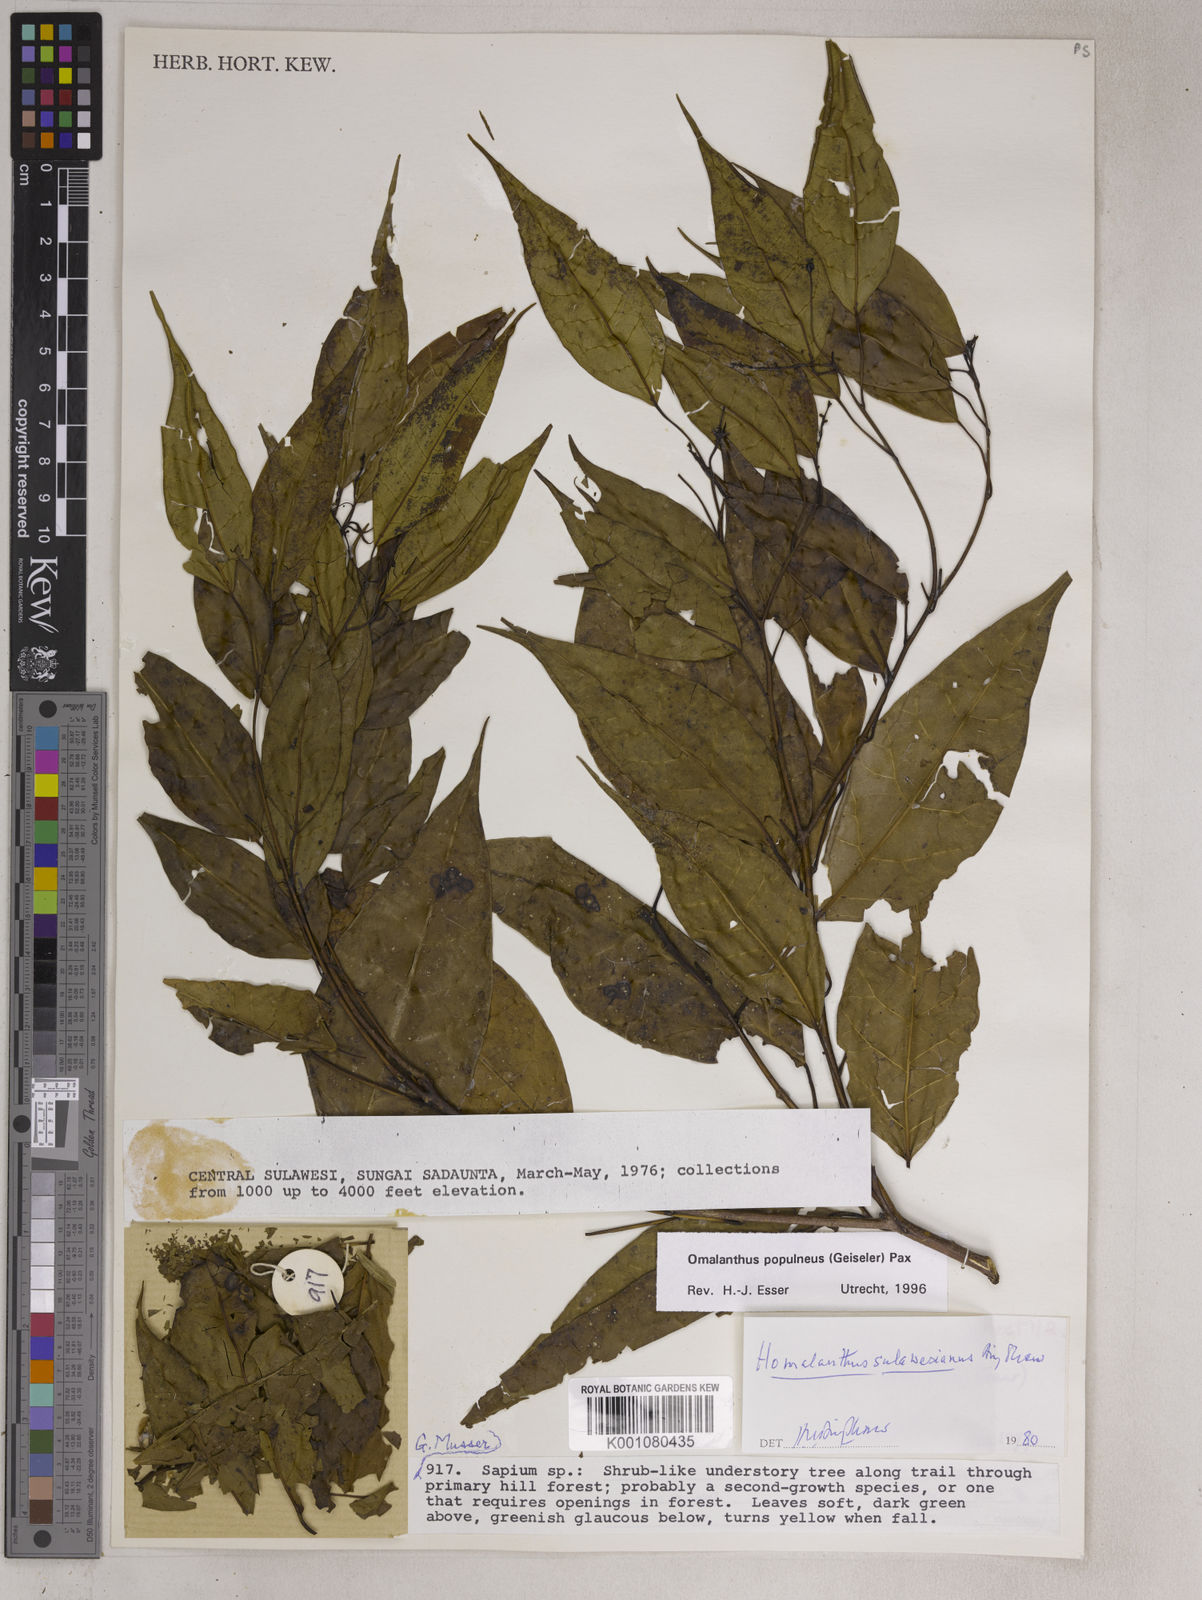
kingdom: Plantae
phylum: Tracheophyta
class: Magnoliopsida
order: Malpighiales
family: Euphorbiaceae
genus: Homalanthus
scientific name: Homalanthus populneus
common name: Spurge
